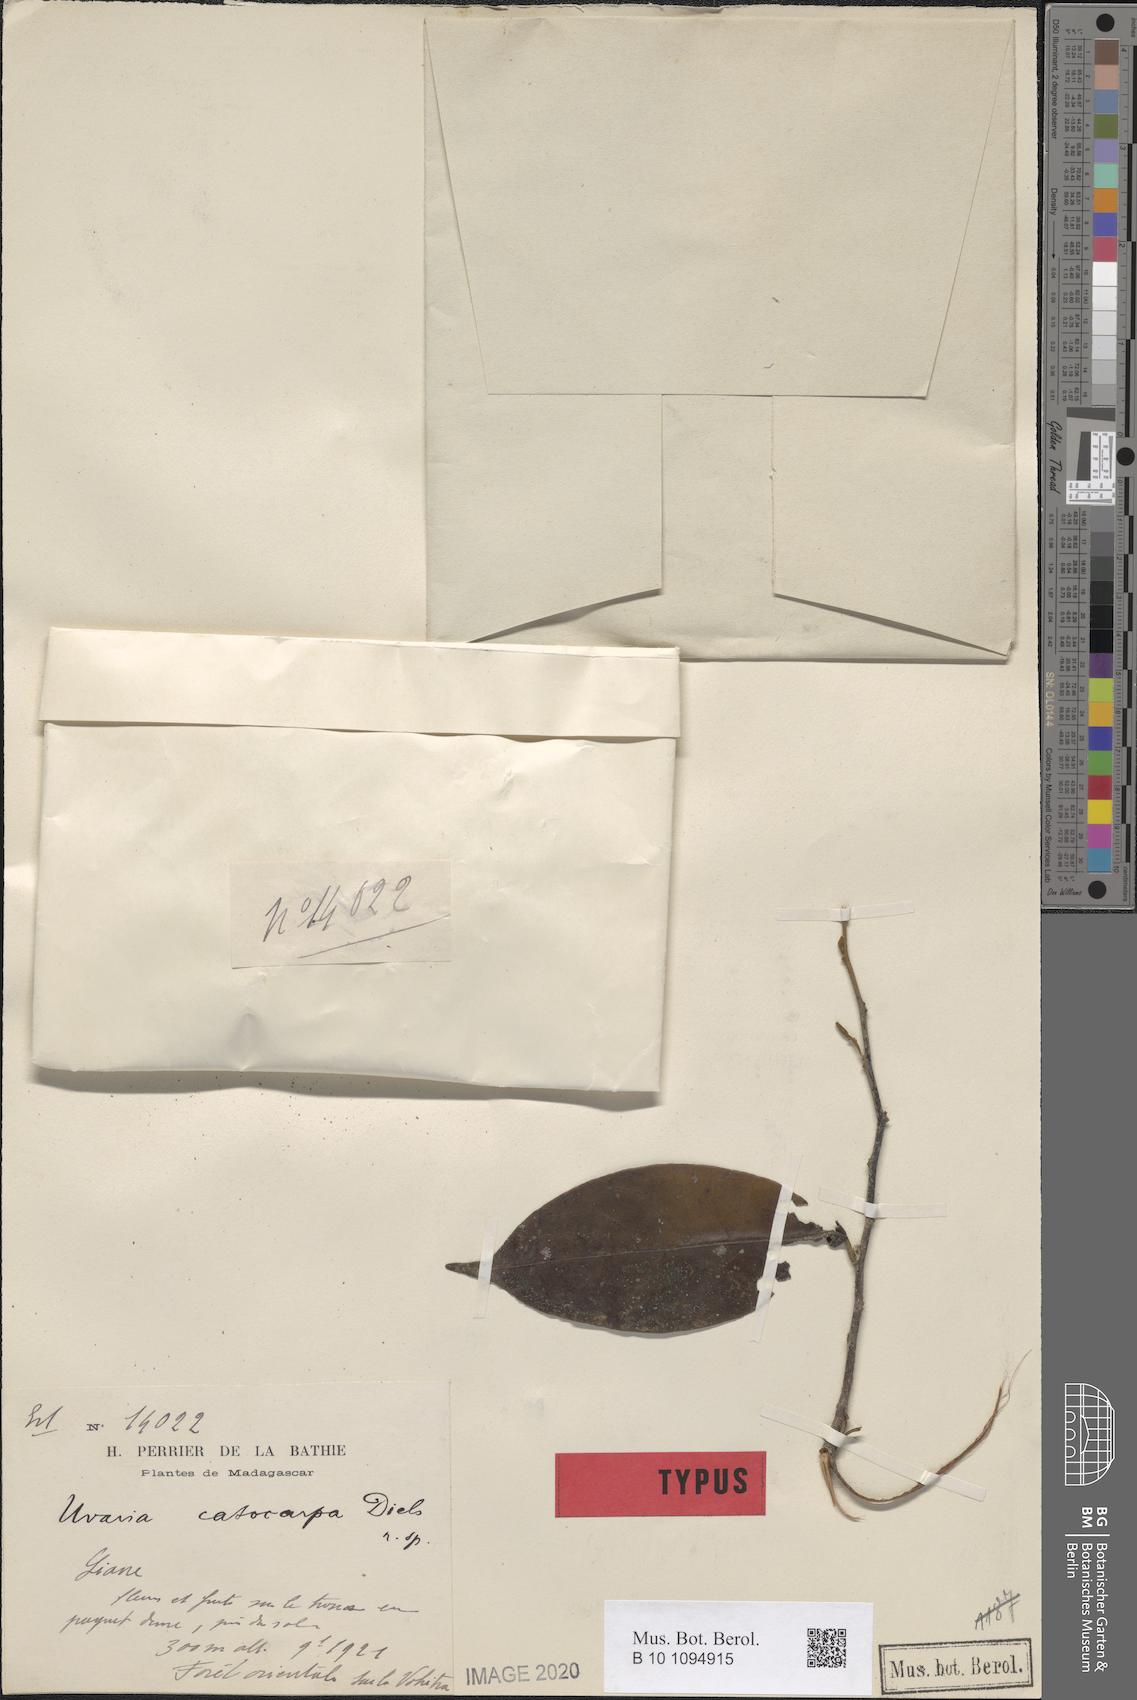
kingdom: Plantae
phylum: Tracheophyta
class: Magnoliopsida
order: Magnoliales
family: Annonaceae
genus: Uvaria
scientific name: Uvaria acuminata
